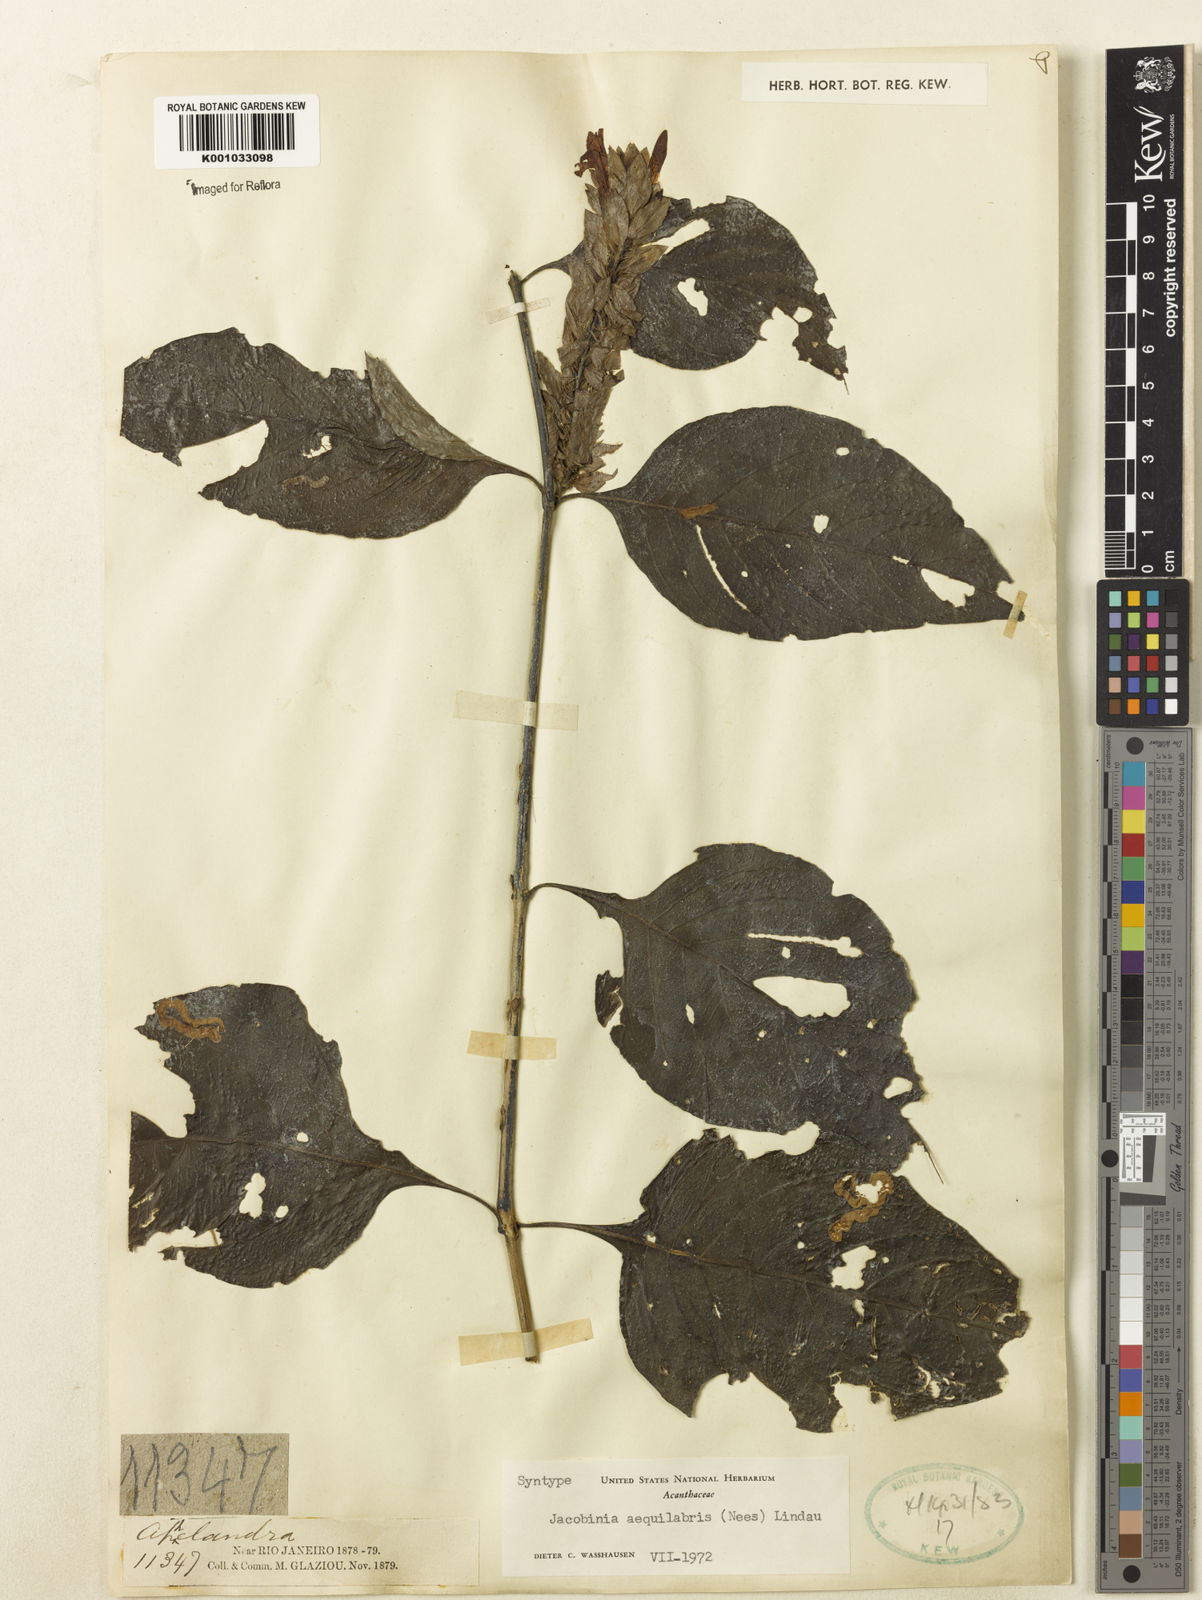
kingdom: Plantae
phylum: Tracheophyta
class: Magnoliopsida
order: Lamiales
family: Acanthaceae
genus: Justicia
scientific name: Justicia aequalis
